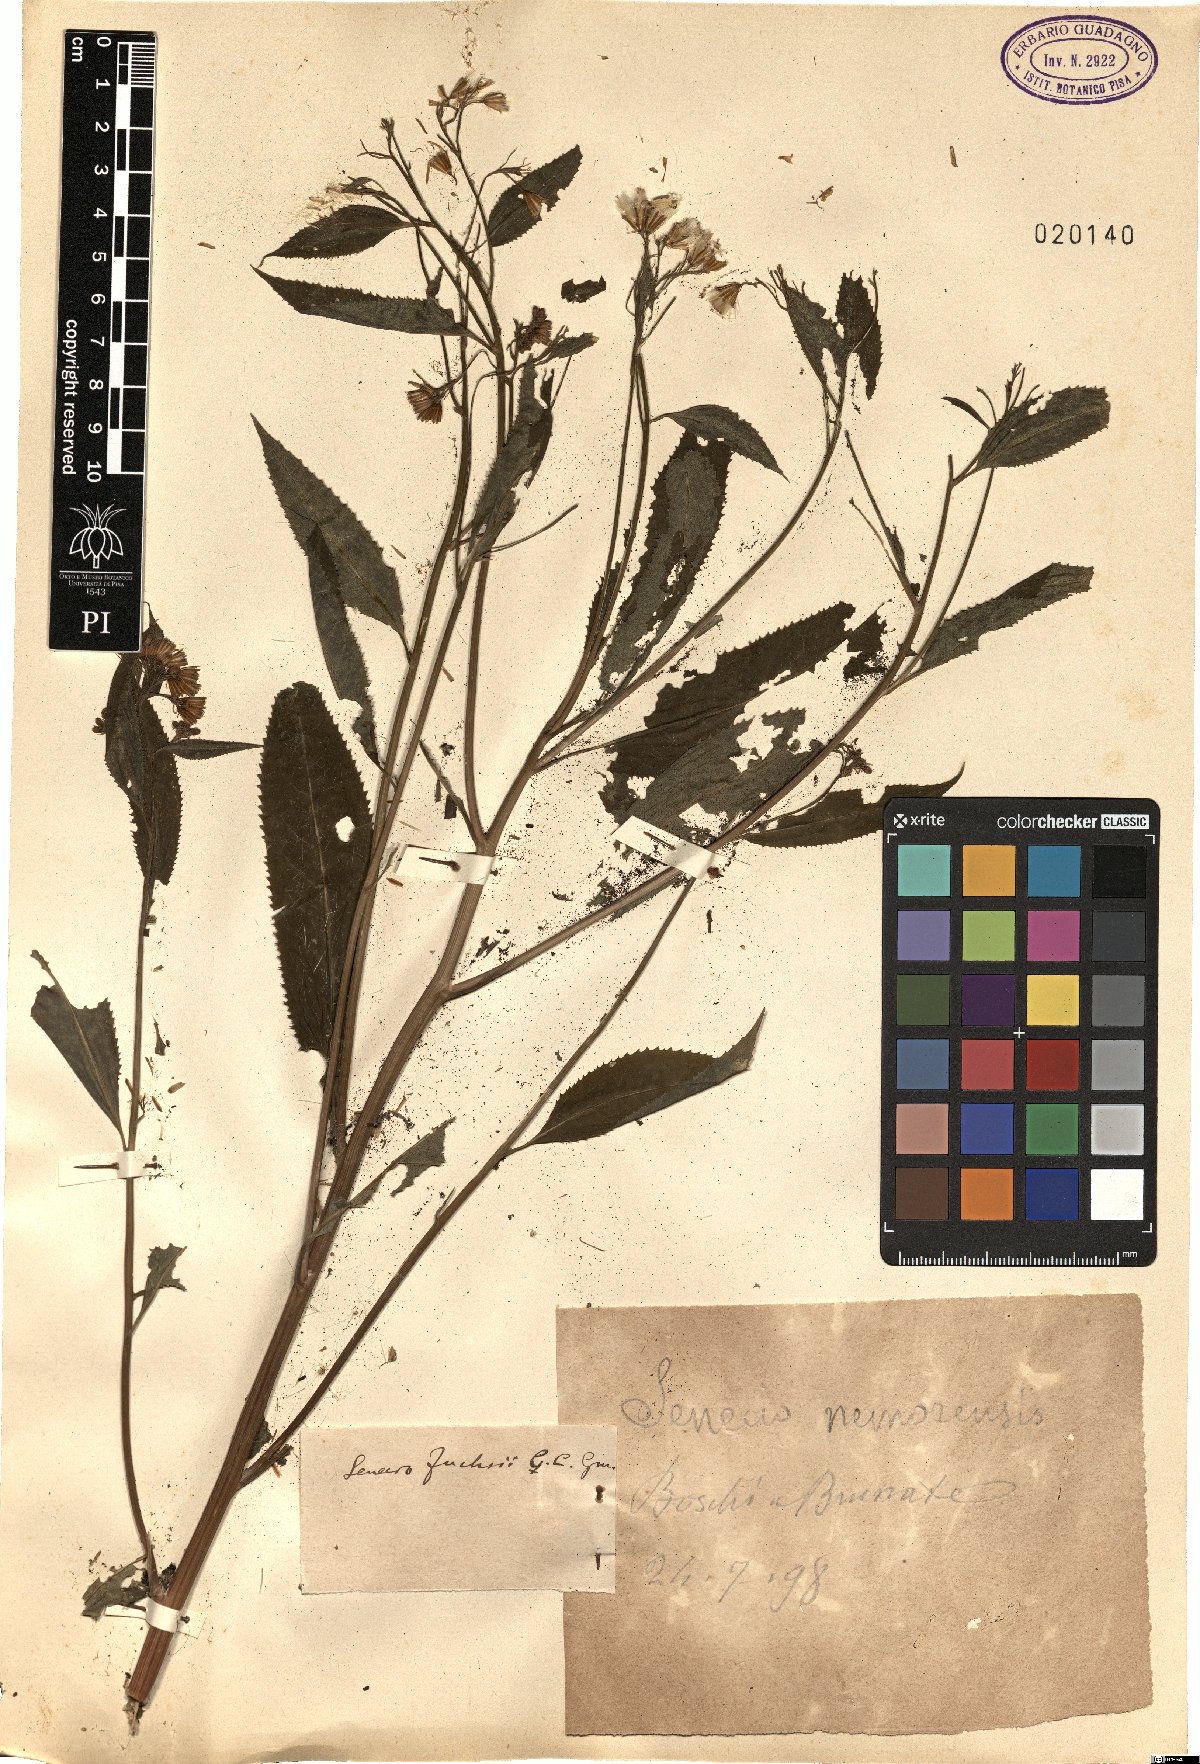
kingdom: Plantae
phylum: Tracheophyta
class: Magnoliopsida
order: Asterales
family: Asteraceae
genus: Senecio
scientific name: Senecio ovatus
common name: Wood ragwort
